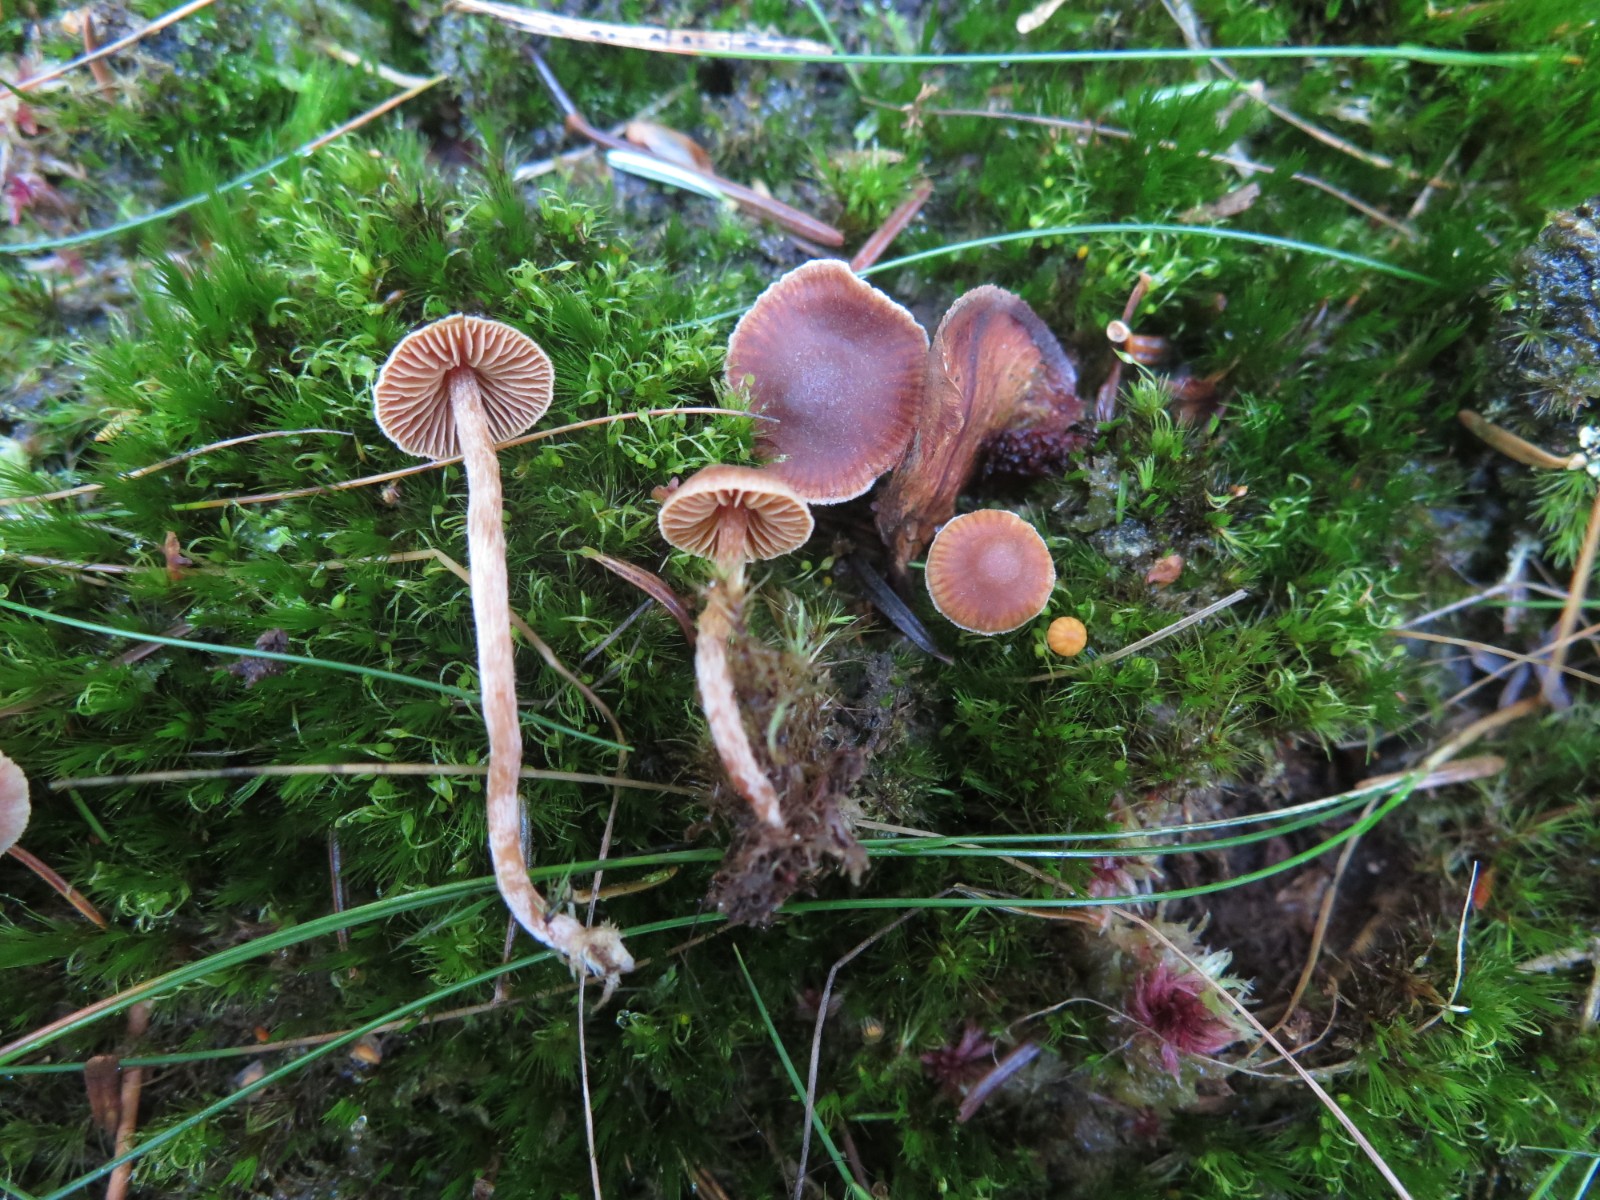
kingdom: Fungi
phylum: Basidiomycota
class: Agaricomycetes
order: Agaricales
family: Cortinariaceae
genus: Cortinarius
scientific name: Cortinarius
